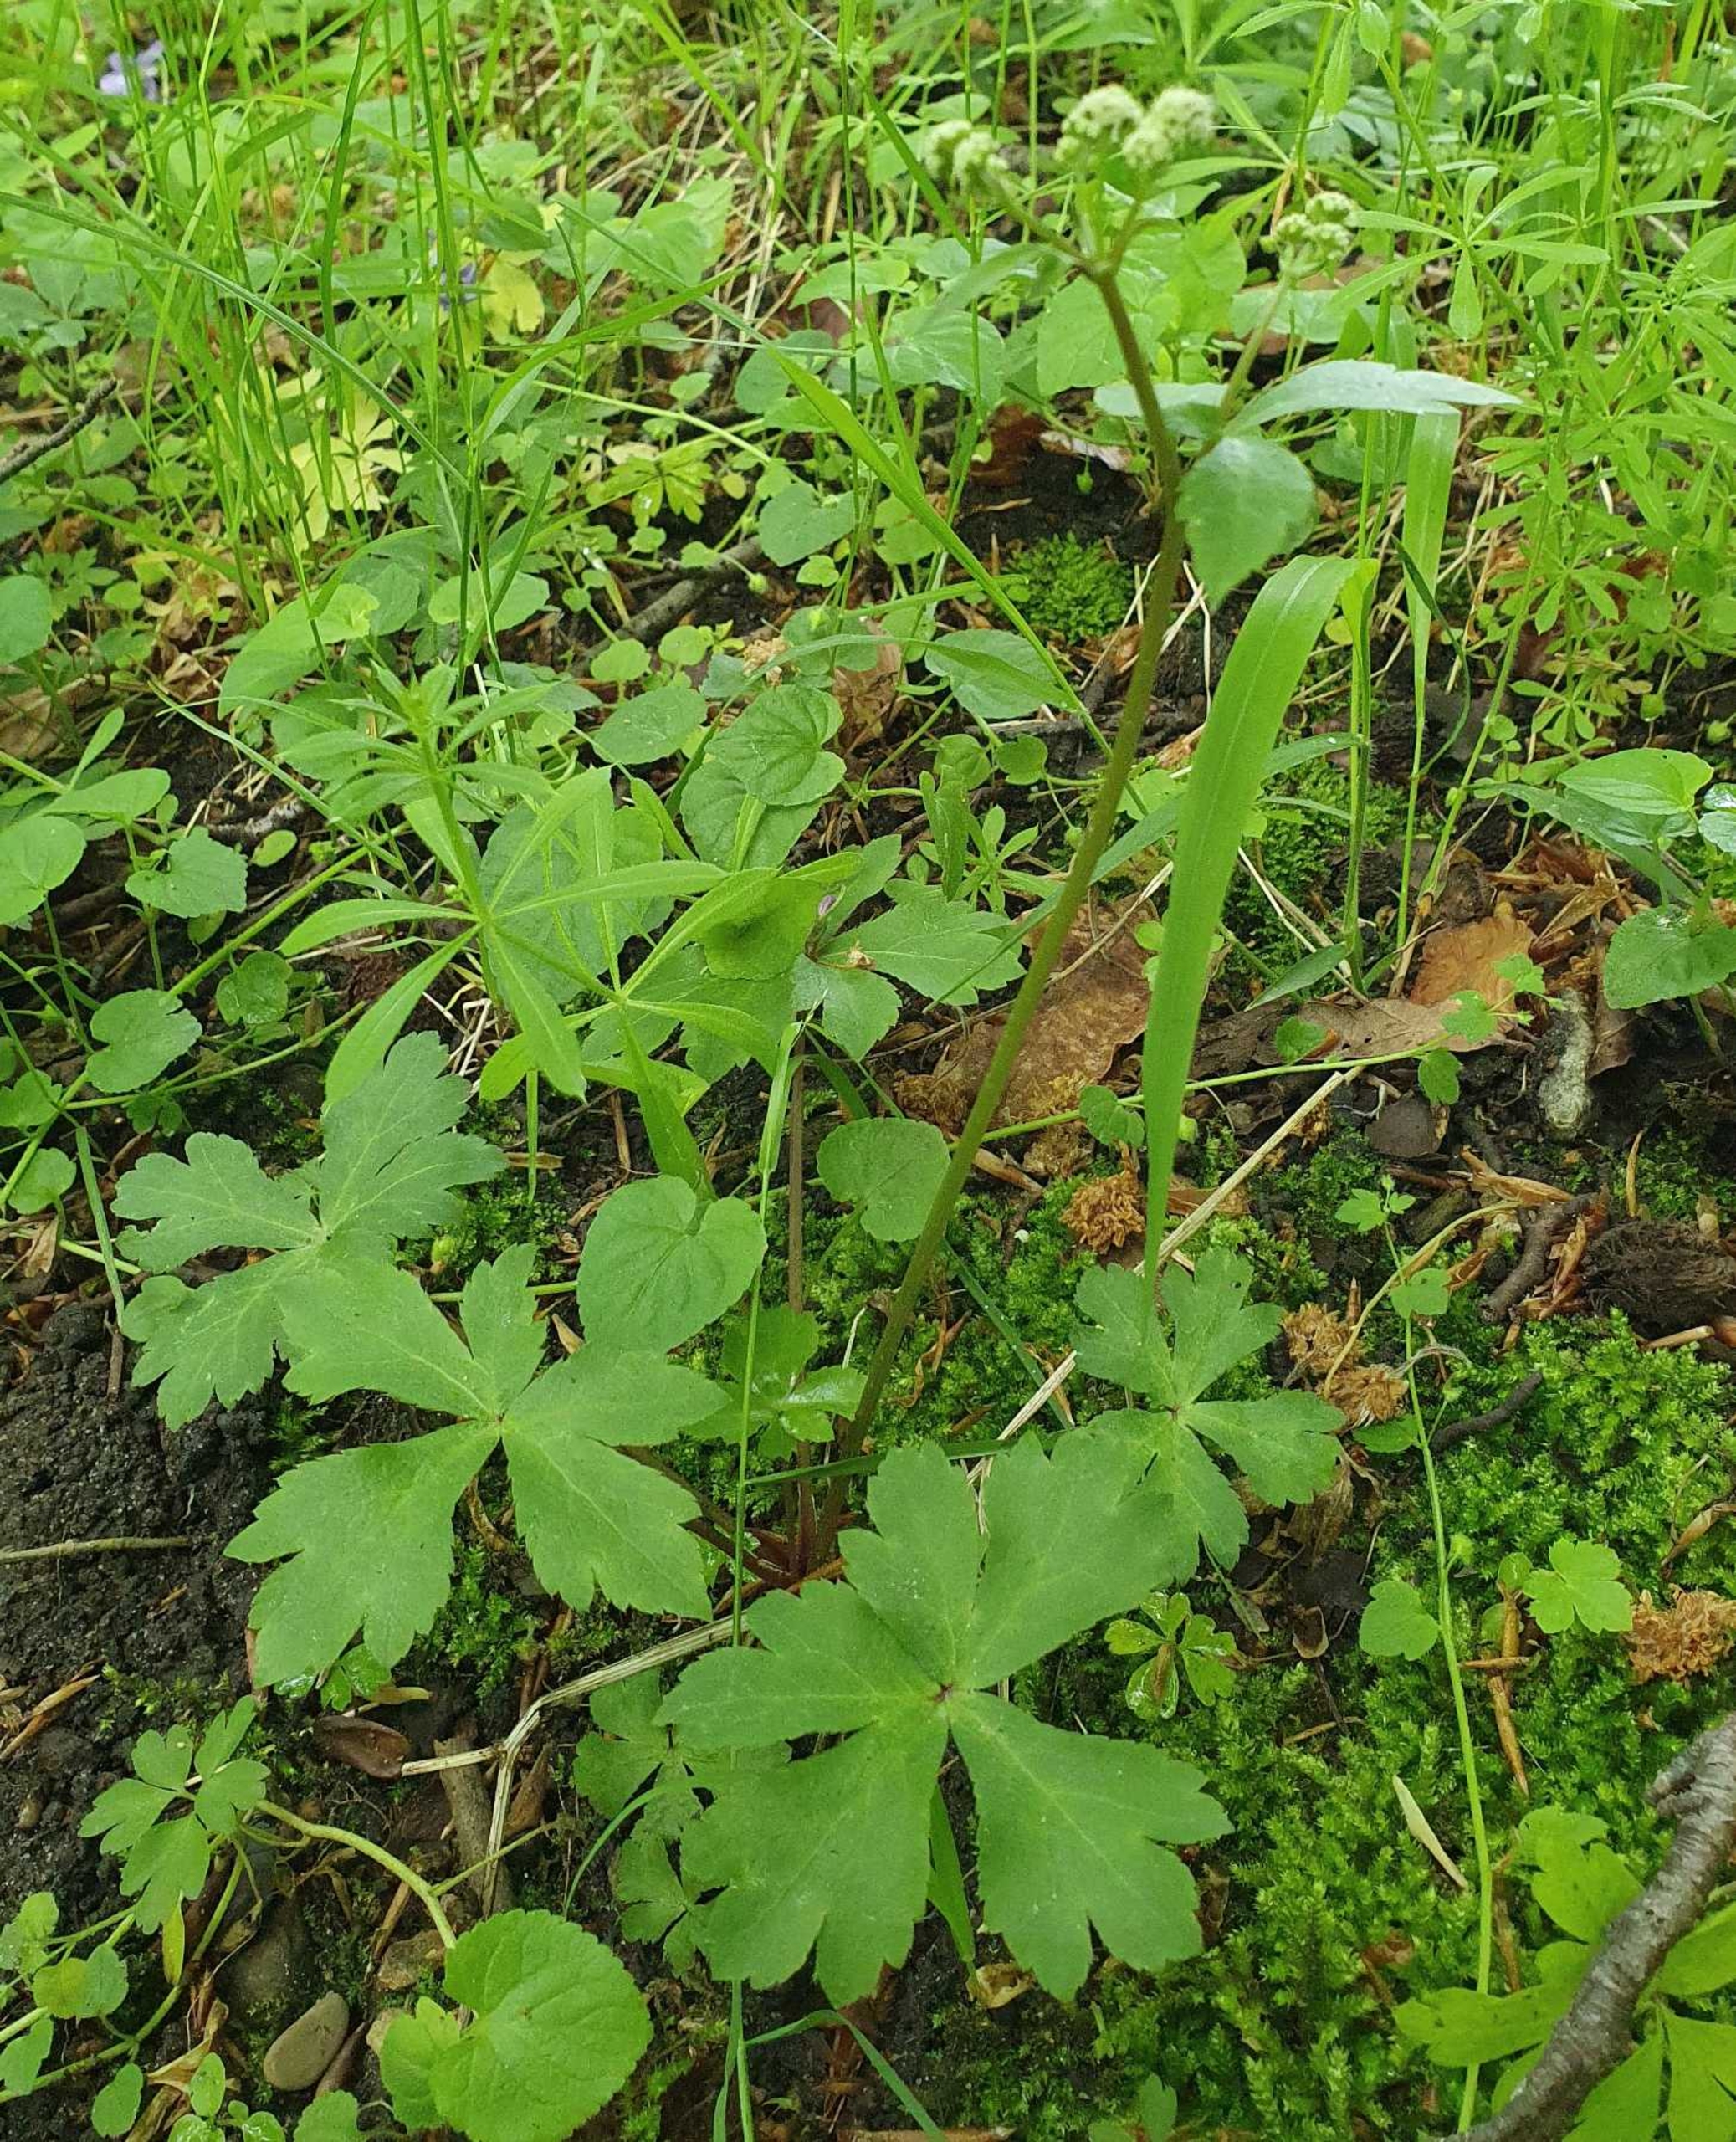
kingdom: Plantae
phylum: Tracheophyta
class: Magnoliopsida
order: Apiales
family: Apiaceae
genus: Sanicula
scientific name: Sanicula europaea
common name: Sanikel
